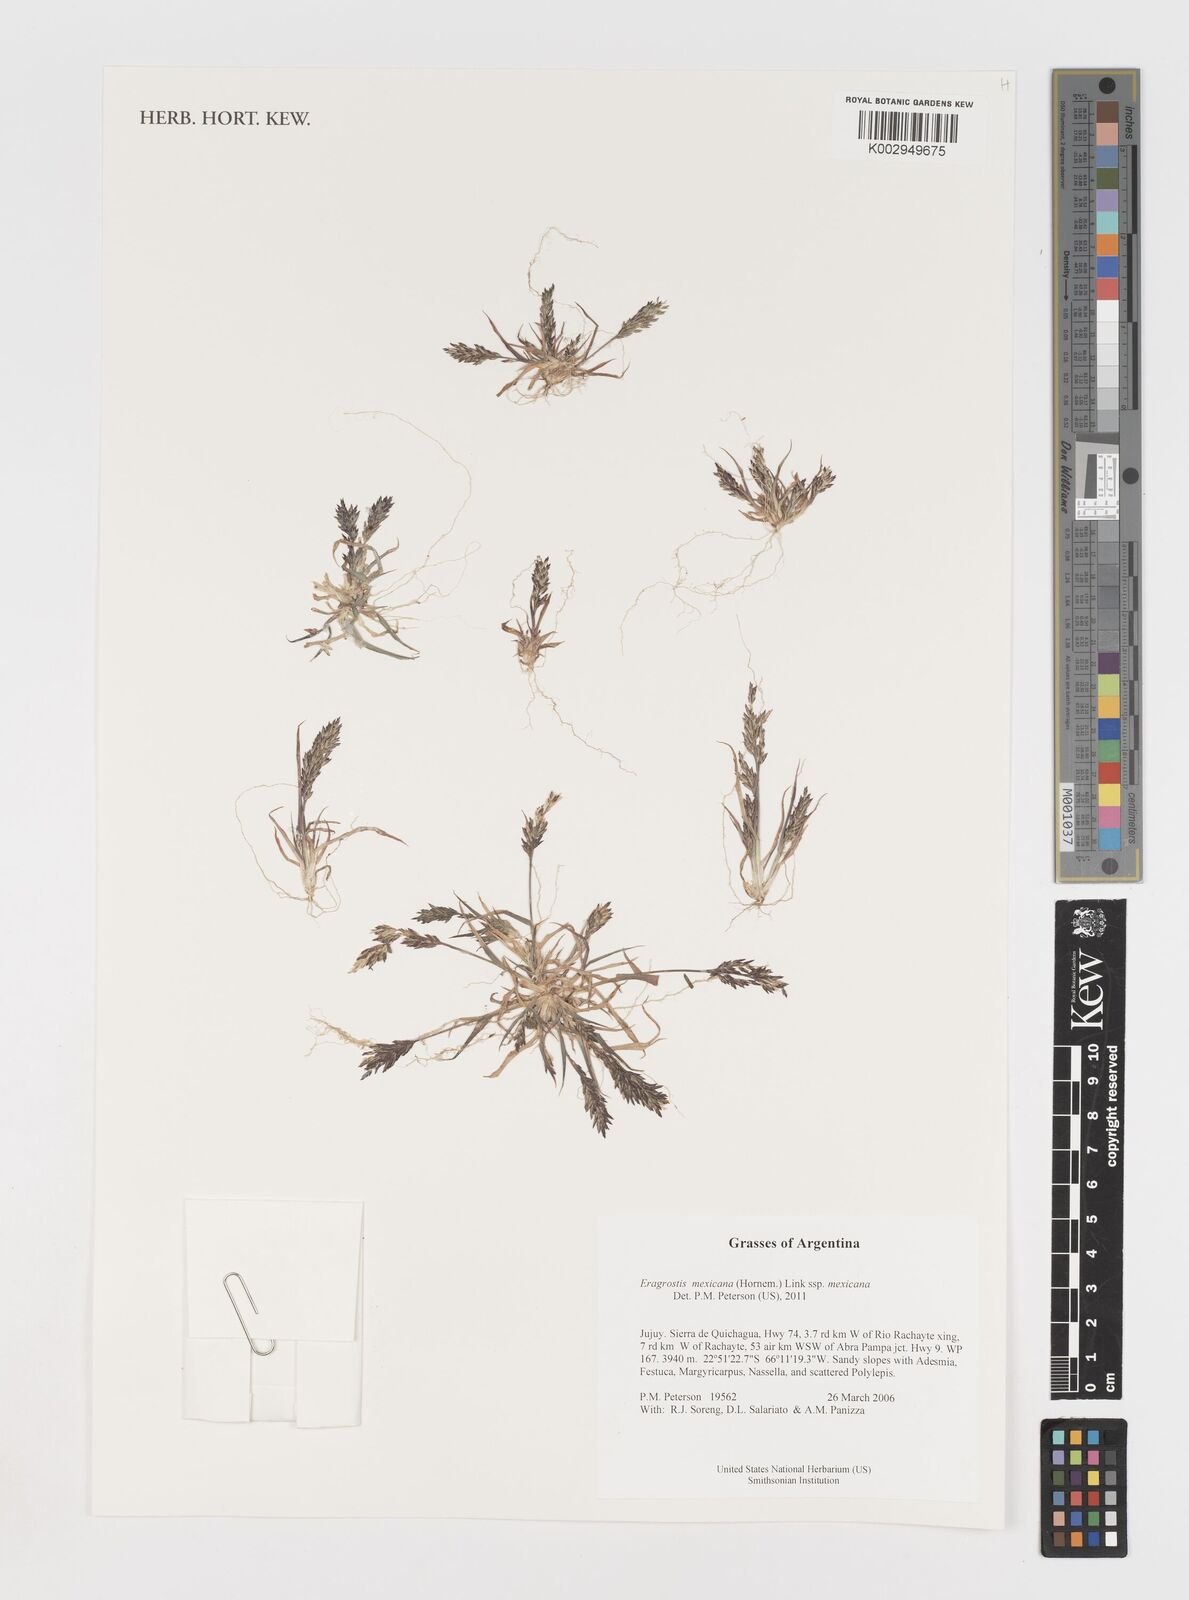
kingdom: Plantae
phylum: Tracheophyta
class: Liliopsida
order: Poales
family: Poaceae
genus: Eragrostis
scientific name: Eragrostis mexicana
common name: Mexican love grass
